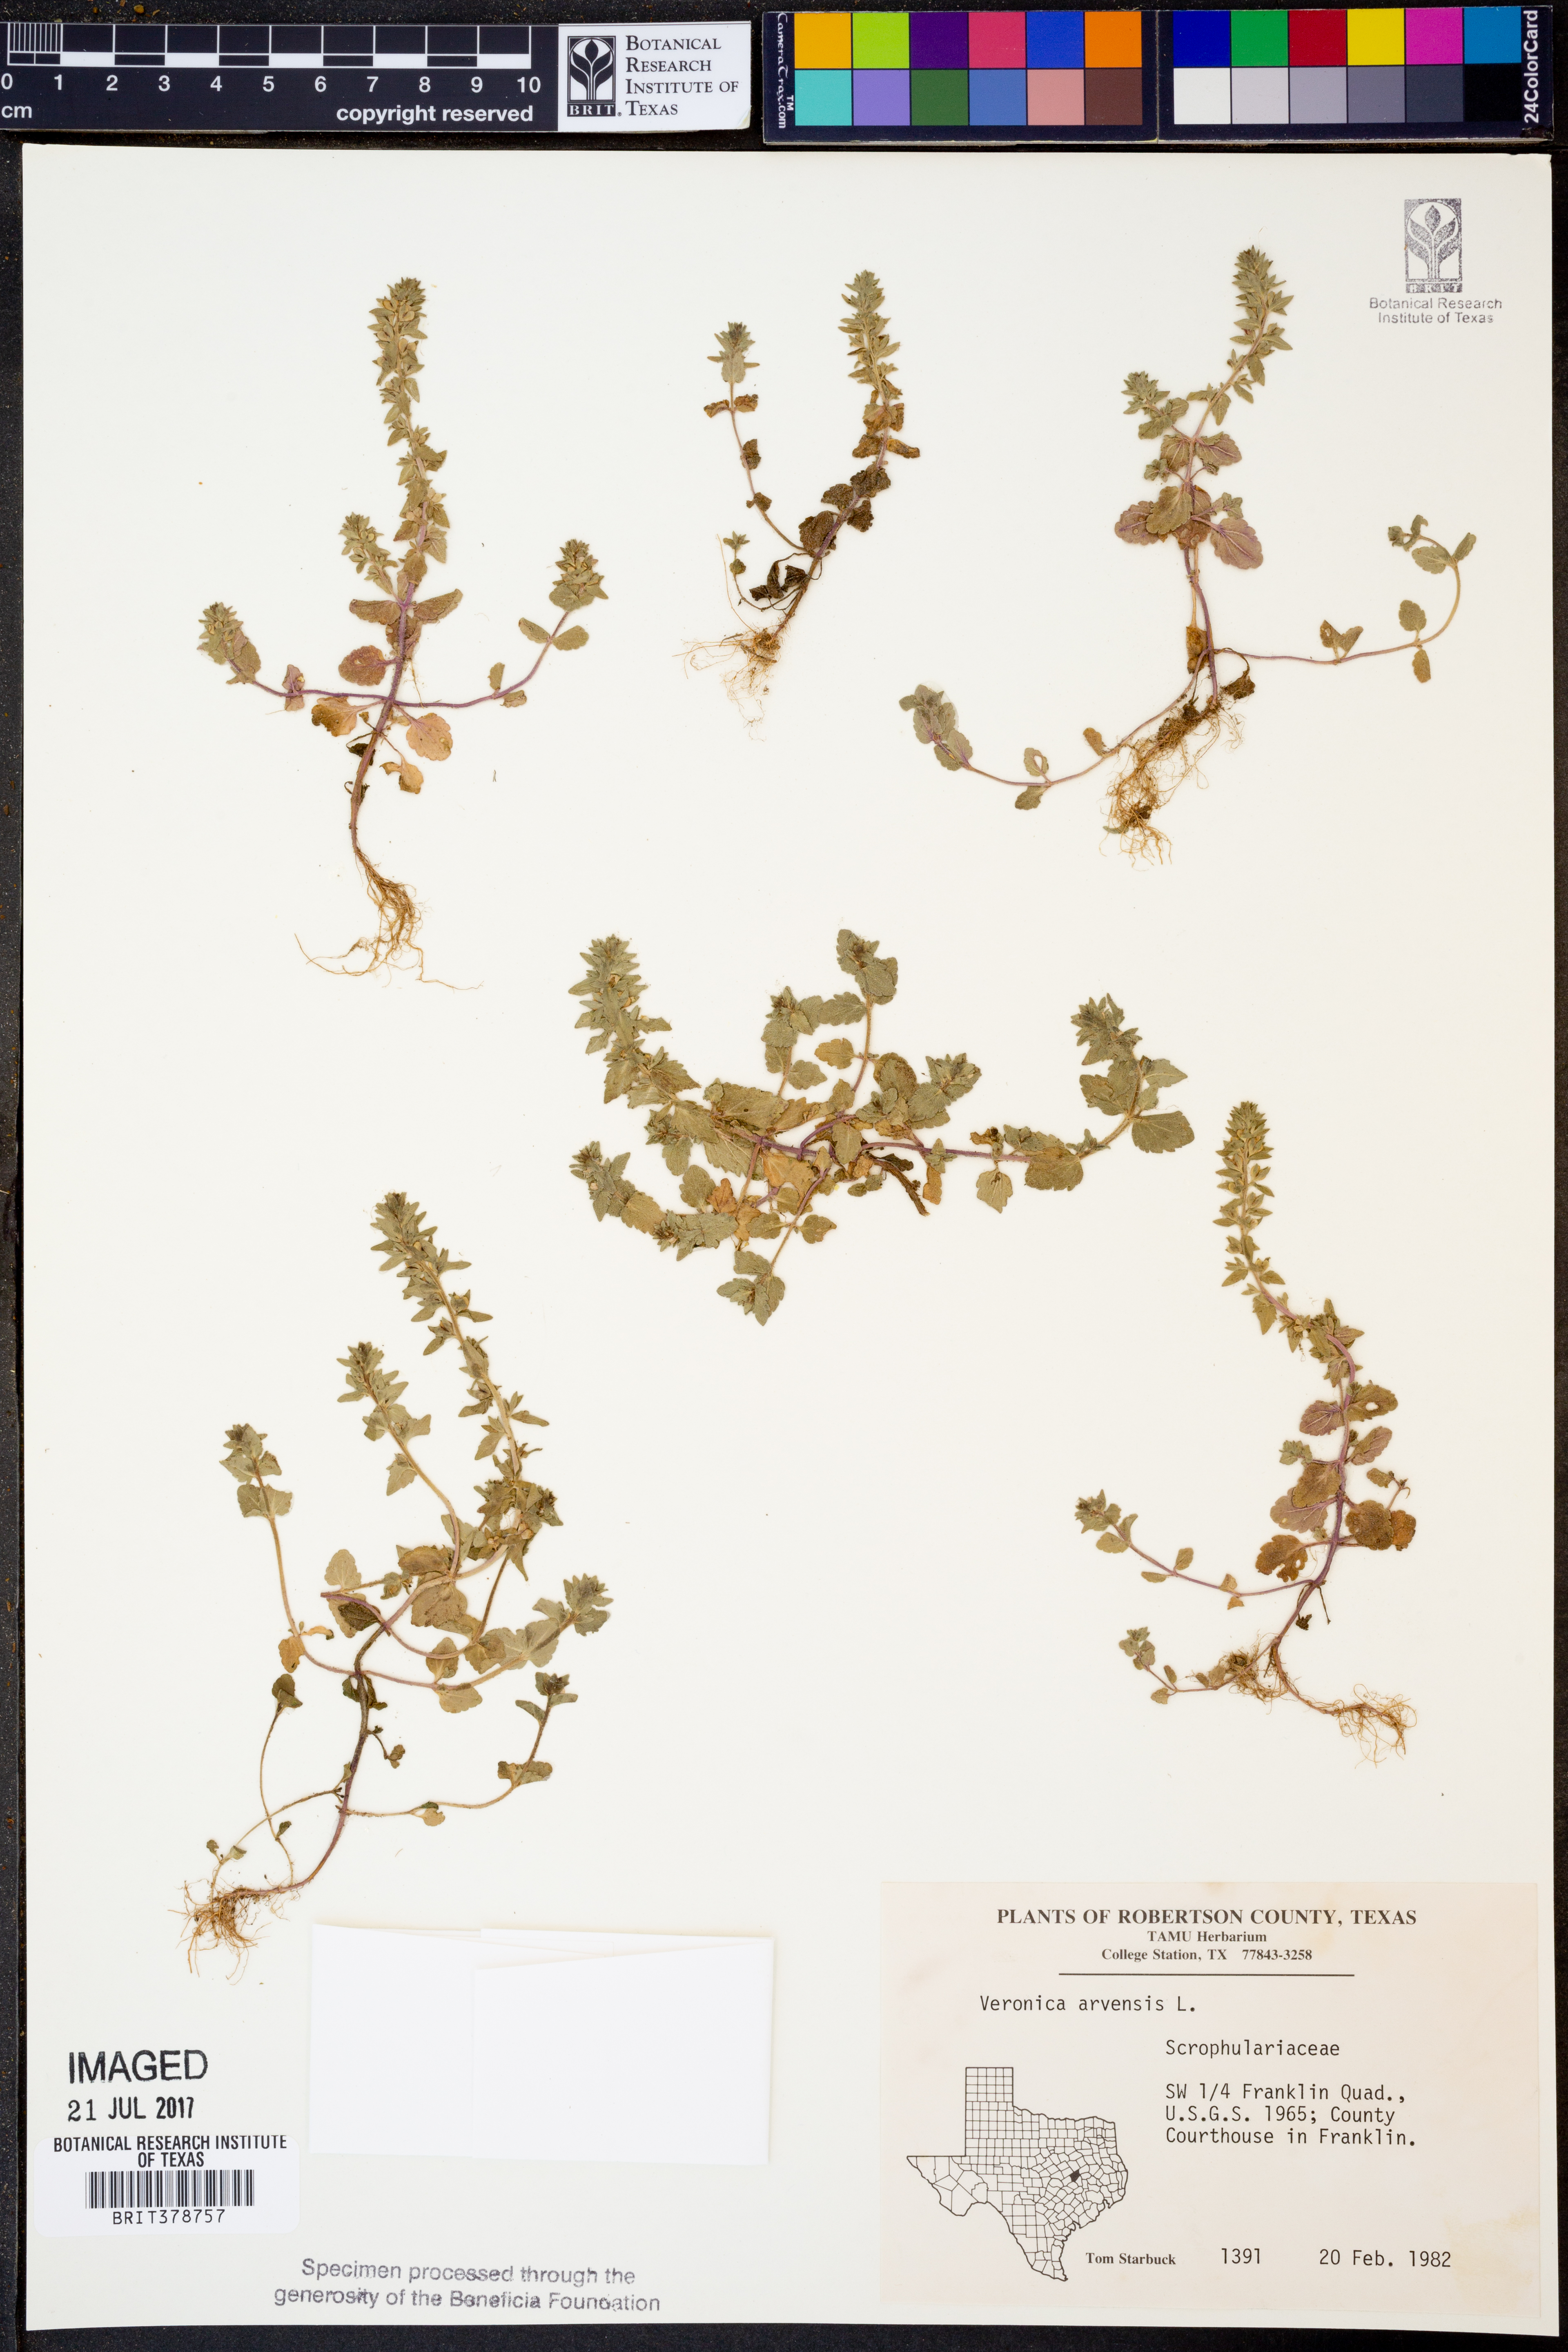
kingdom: Plantae
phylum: Tracheophyta
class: Magnoliopsida
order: Lamiales
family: Plantaginaceae
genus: Veronica
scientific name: Veronica arvensis
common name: Corn speedwell
